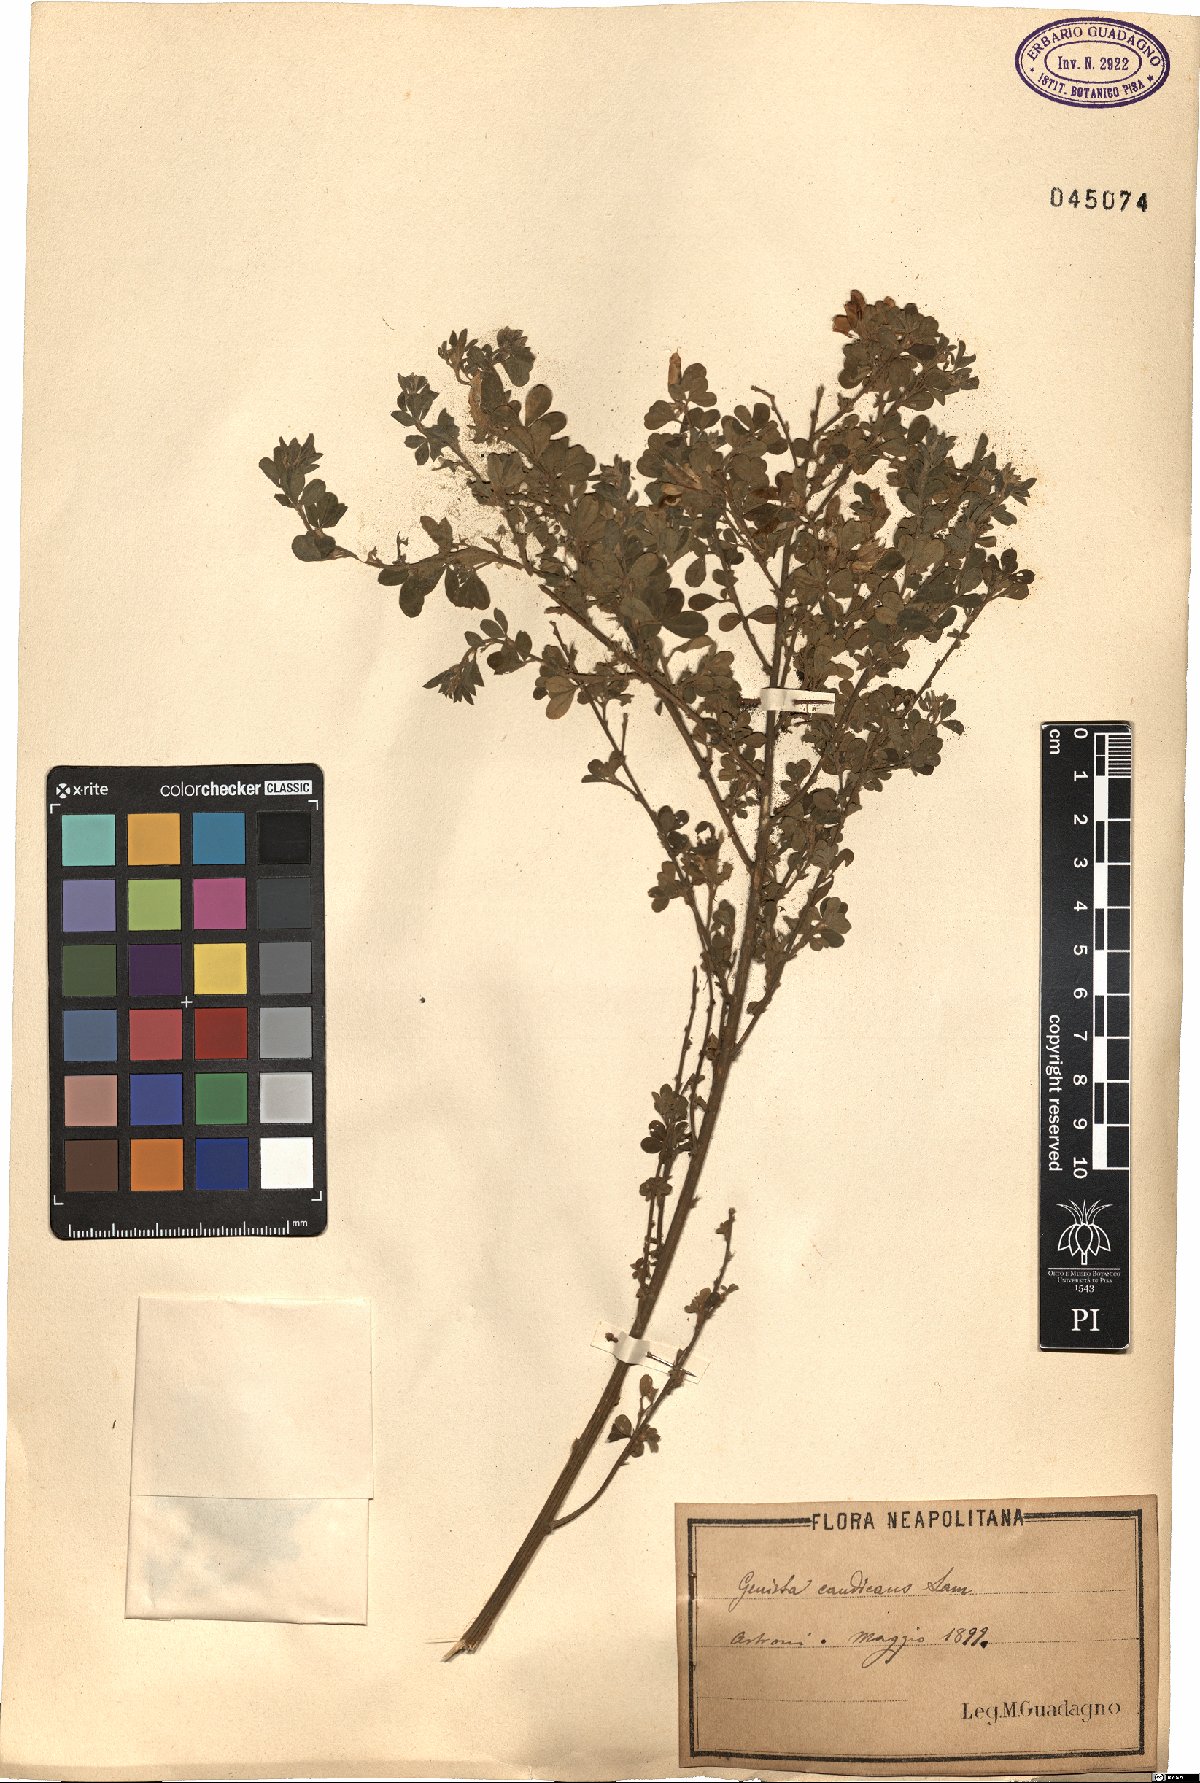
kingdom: Plantae
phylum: Tracheophyta
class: Magnoliopsida
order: Fabales
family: Fabaceae
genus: Genista
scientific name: Genista monspessulana
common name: Montpellier broom
